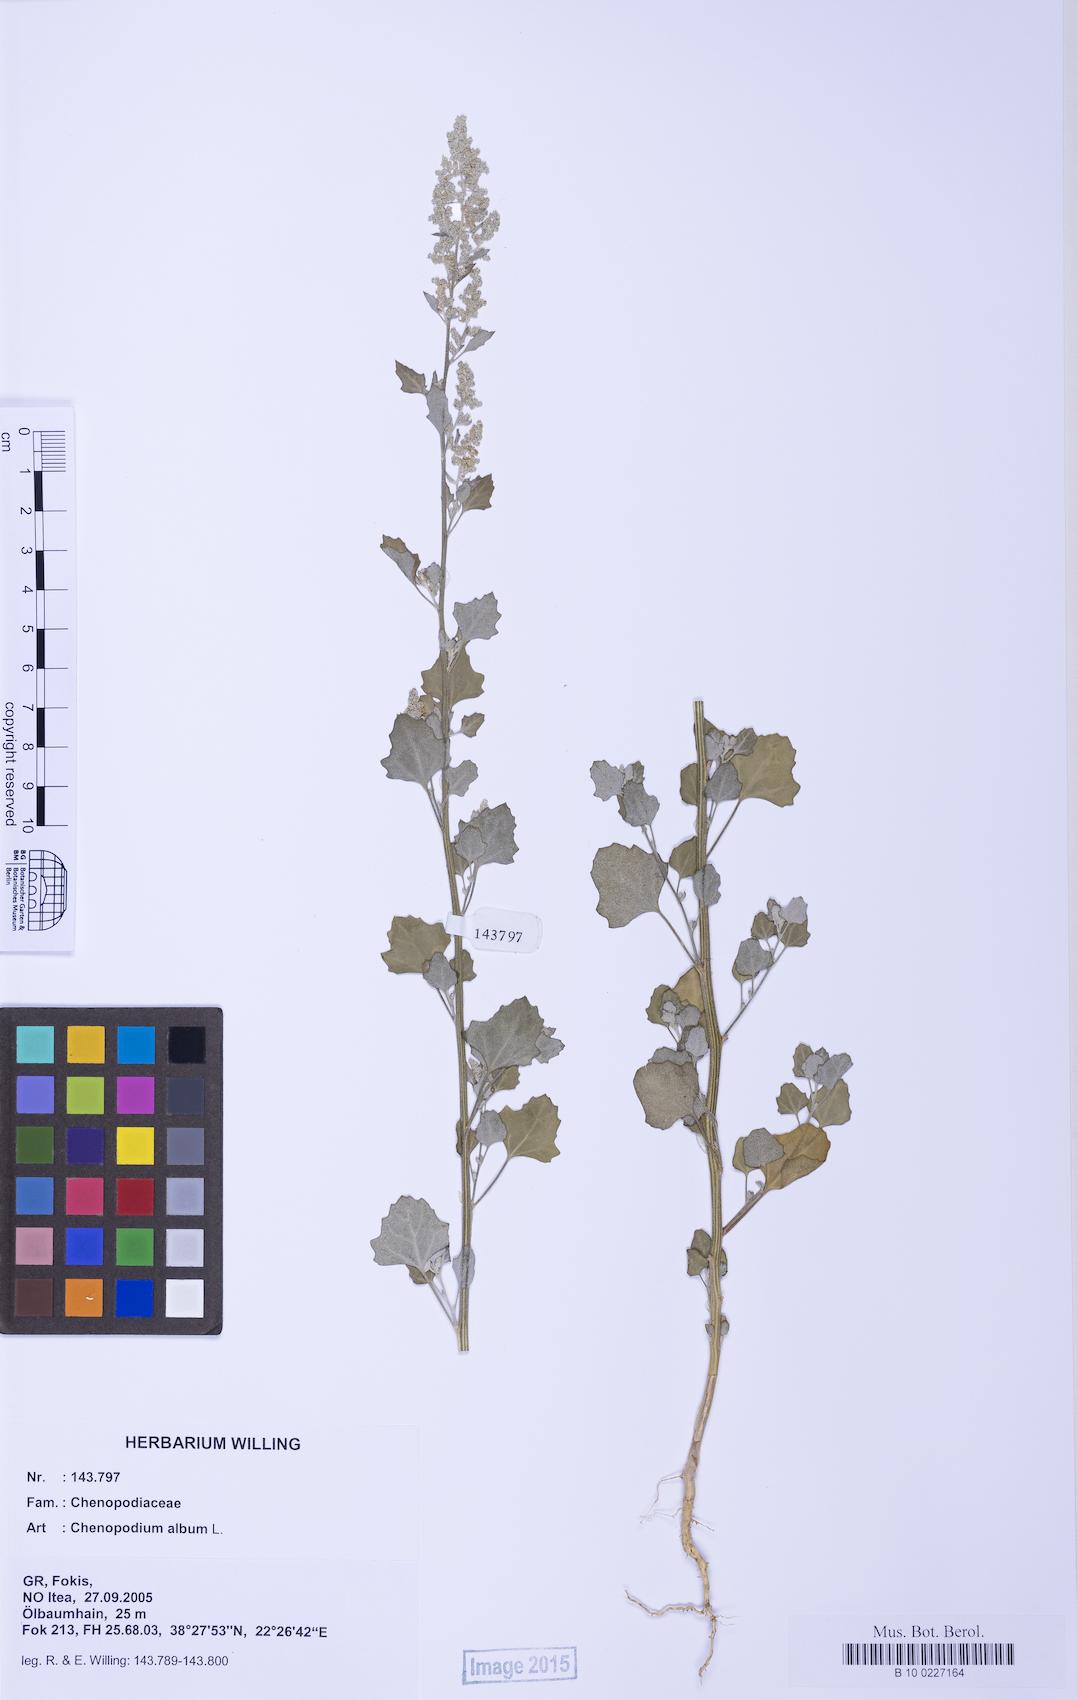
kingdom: Plantae
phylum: Tracheophyta
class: Magnoliopsida
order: Caryophyllales
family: Amaranthaceae
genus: Chenopodium
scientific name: Chenopodium album
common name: Fat-hen
